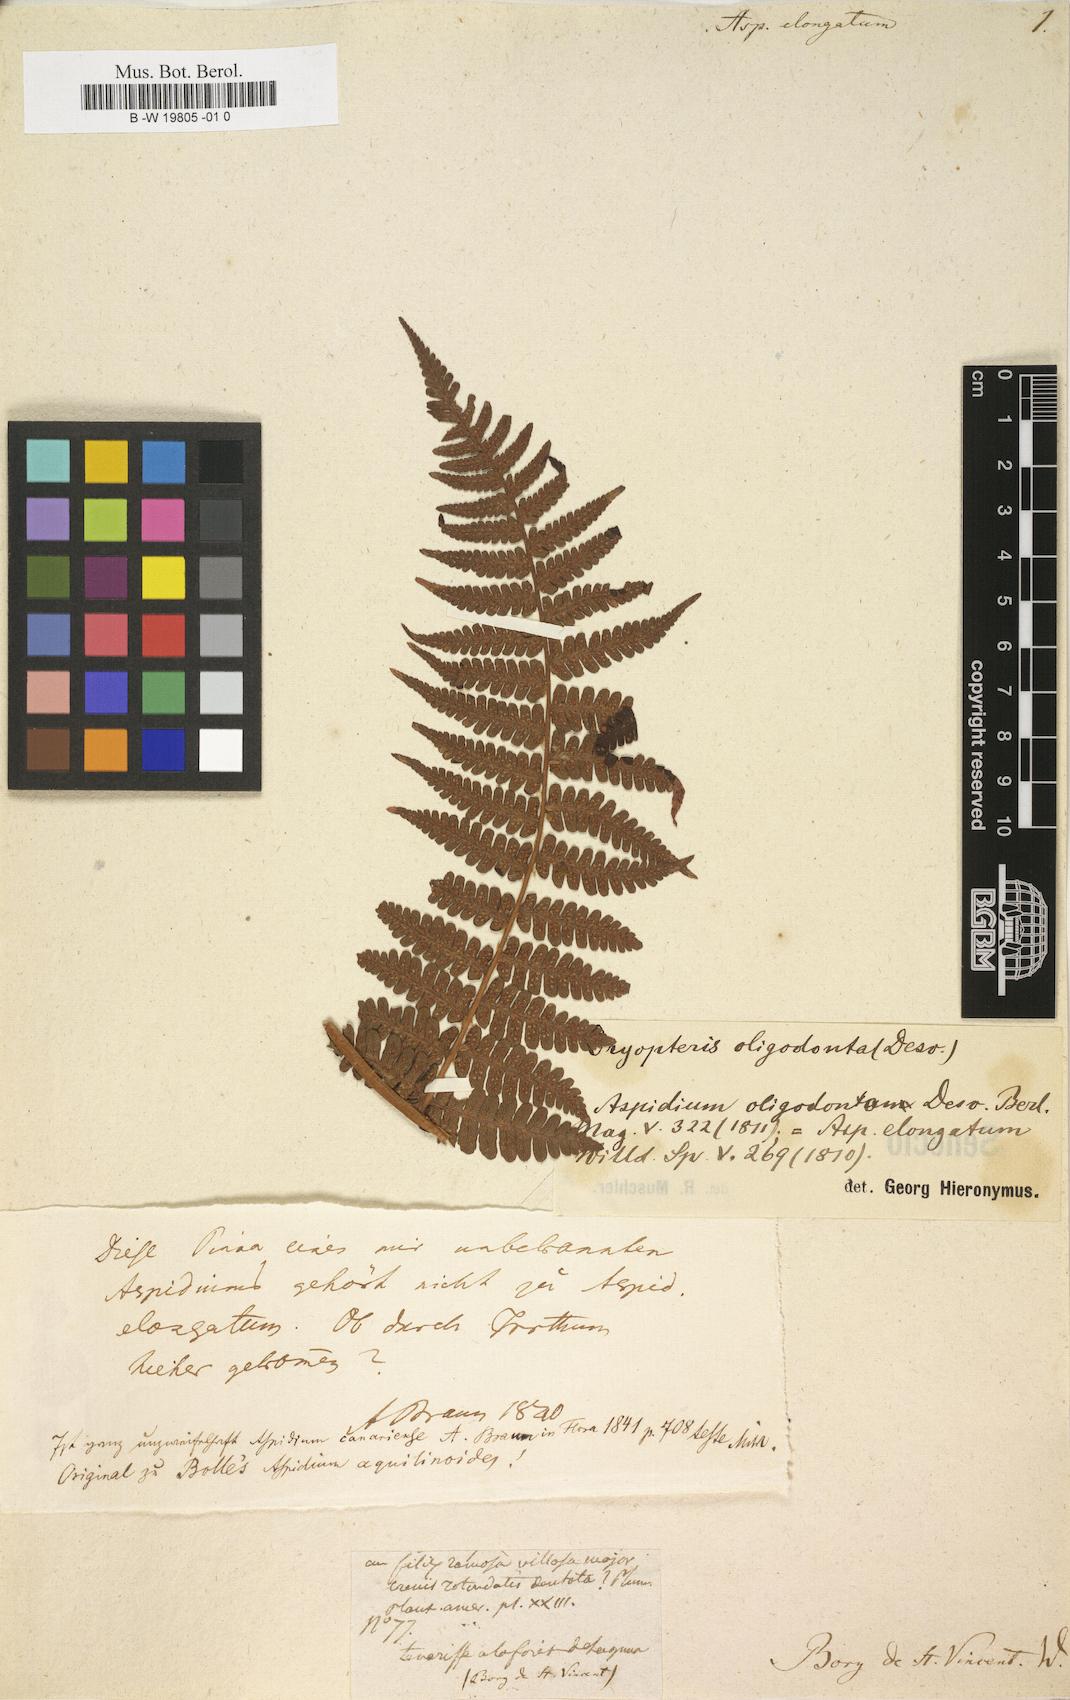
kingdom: Plantae
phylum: Tracheophyta
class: Polypodiopsida
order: Polypodiales
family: Dryopteridaceae
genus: Dryopteris
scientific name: Dryopteris
